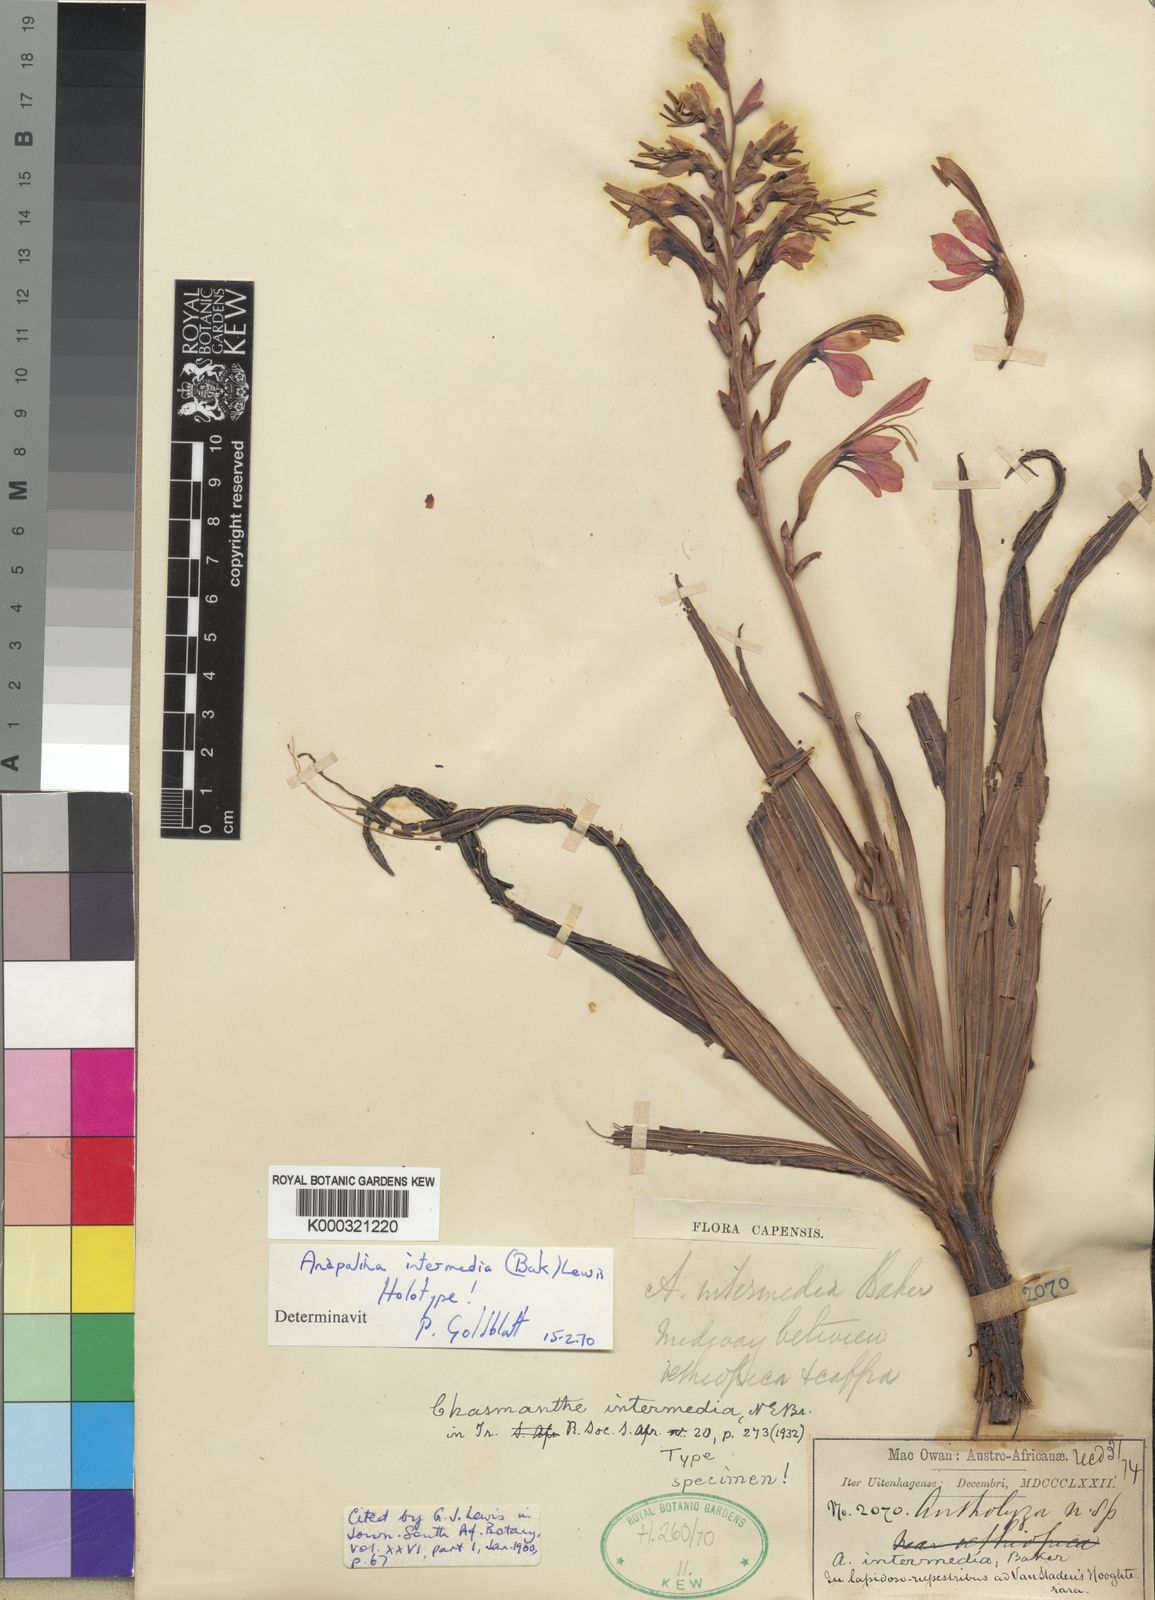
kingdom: Plantae
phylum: Tracheophyta
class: Liliopsida
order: Asparagales
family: Iridaceae
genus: Tritoniopsis
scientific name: Tritoniopsis intermedia
